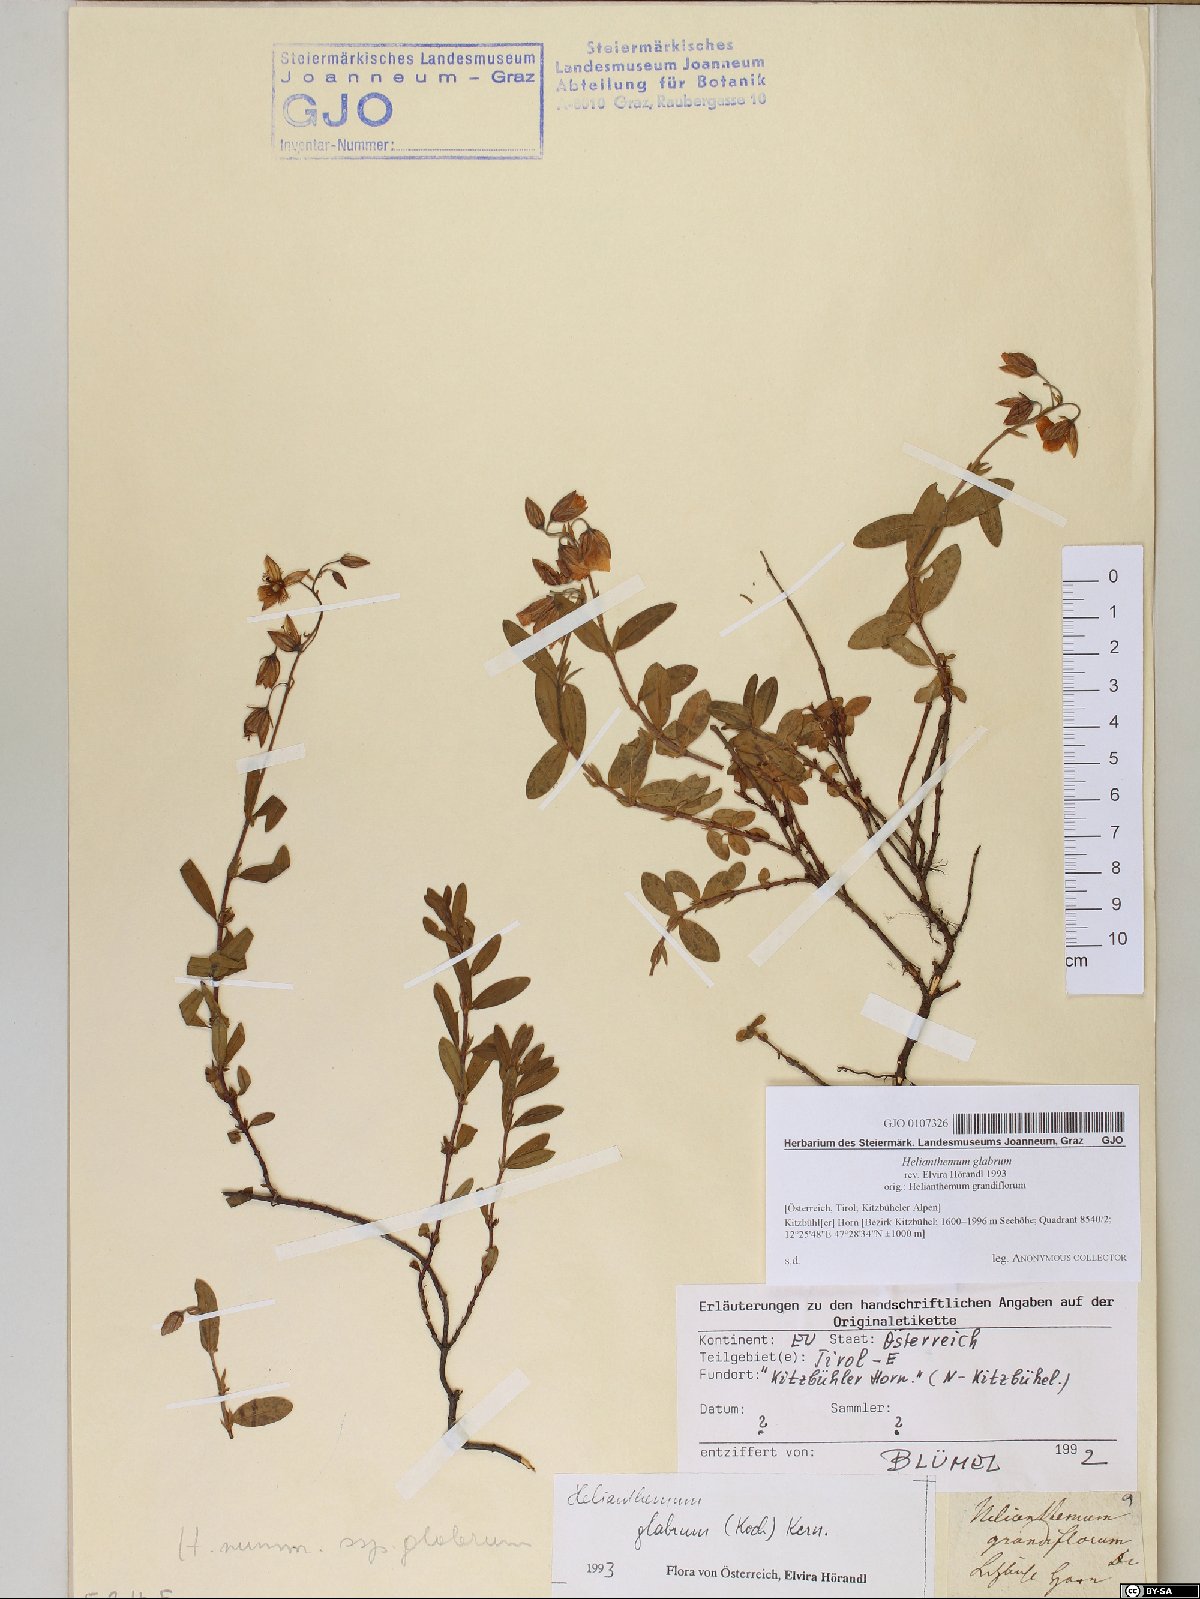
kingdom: Plantae
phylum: Tracheophyta
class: Magnoliopsida
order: Malvales
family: Cistaceae
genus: Helianthemum
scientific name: Helianthemum nummularium
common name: Common rock-rose
